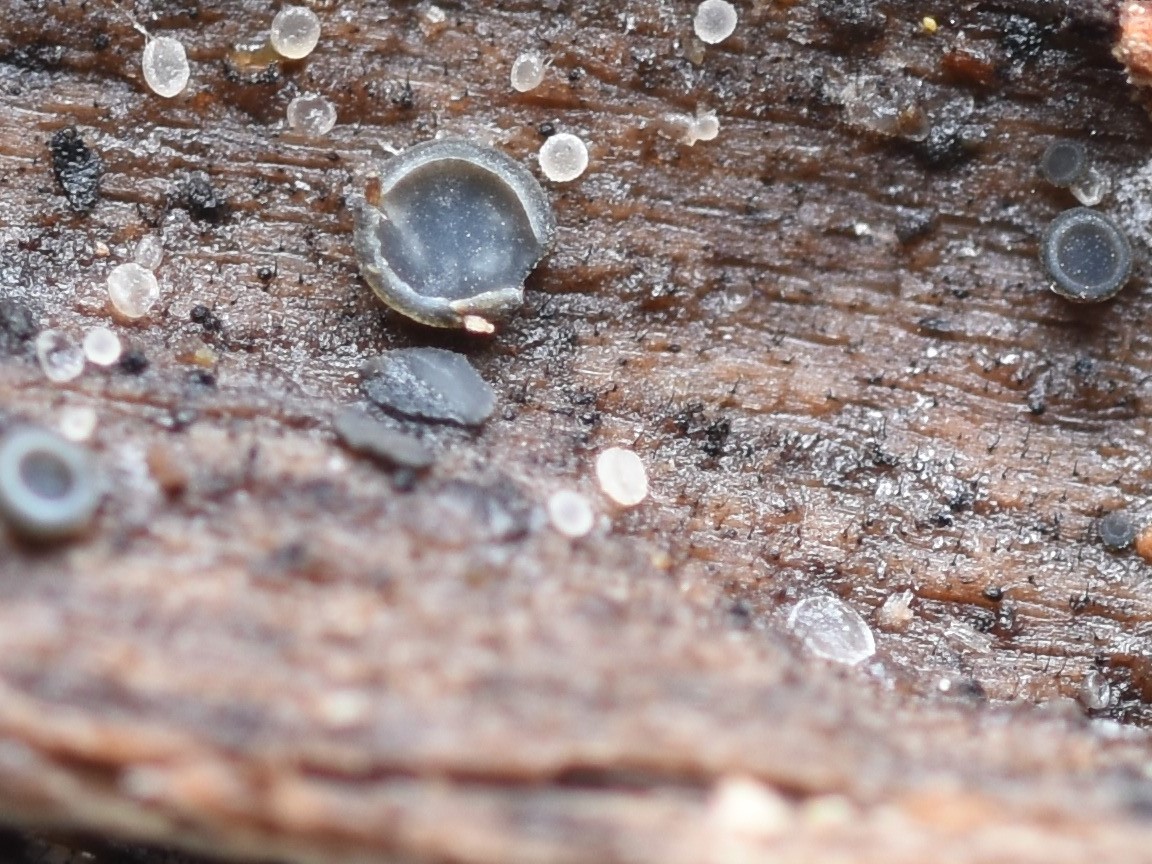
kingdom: Fungi
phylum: Ascomycota
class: Leotiomycetes
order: Helotiales
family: Mollisiaceae
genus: Mollisia
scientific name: Mollisia cinerea
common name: almindelig gråskive
